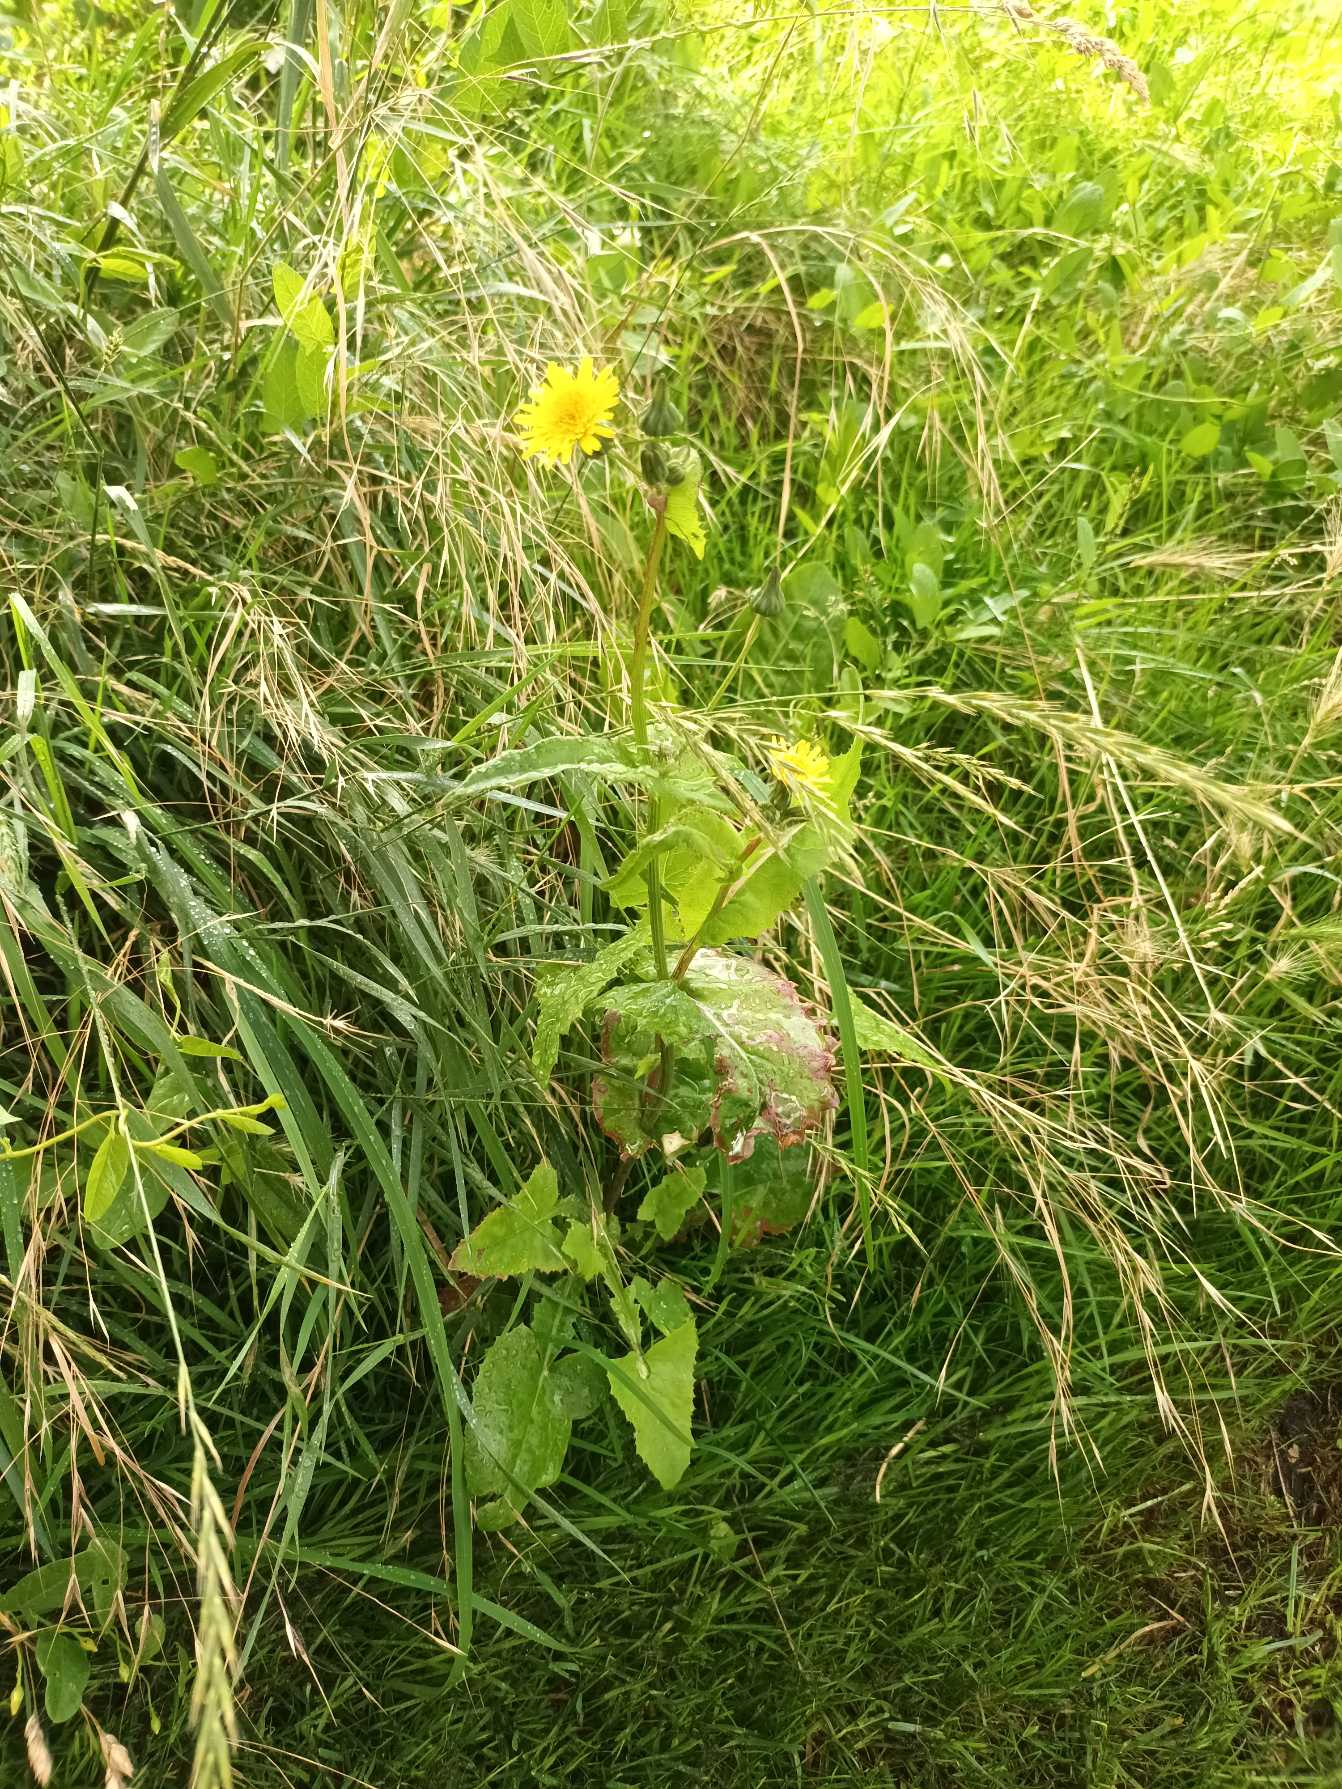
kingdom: Plantae
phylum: Tracheophyta
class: Magnoliopsida
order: Asterales
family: Asteraceae
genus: Sonchus
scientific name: Sonchus oleraceus
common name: Almindelig svinemælk
